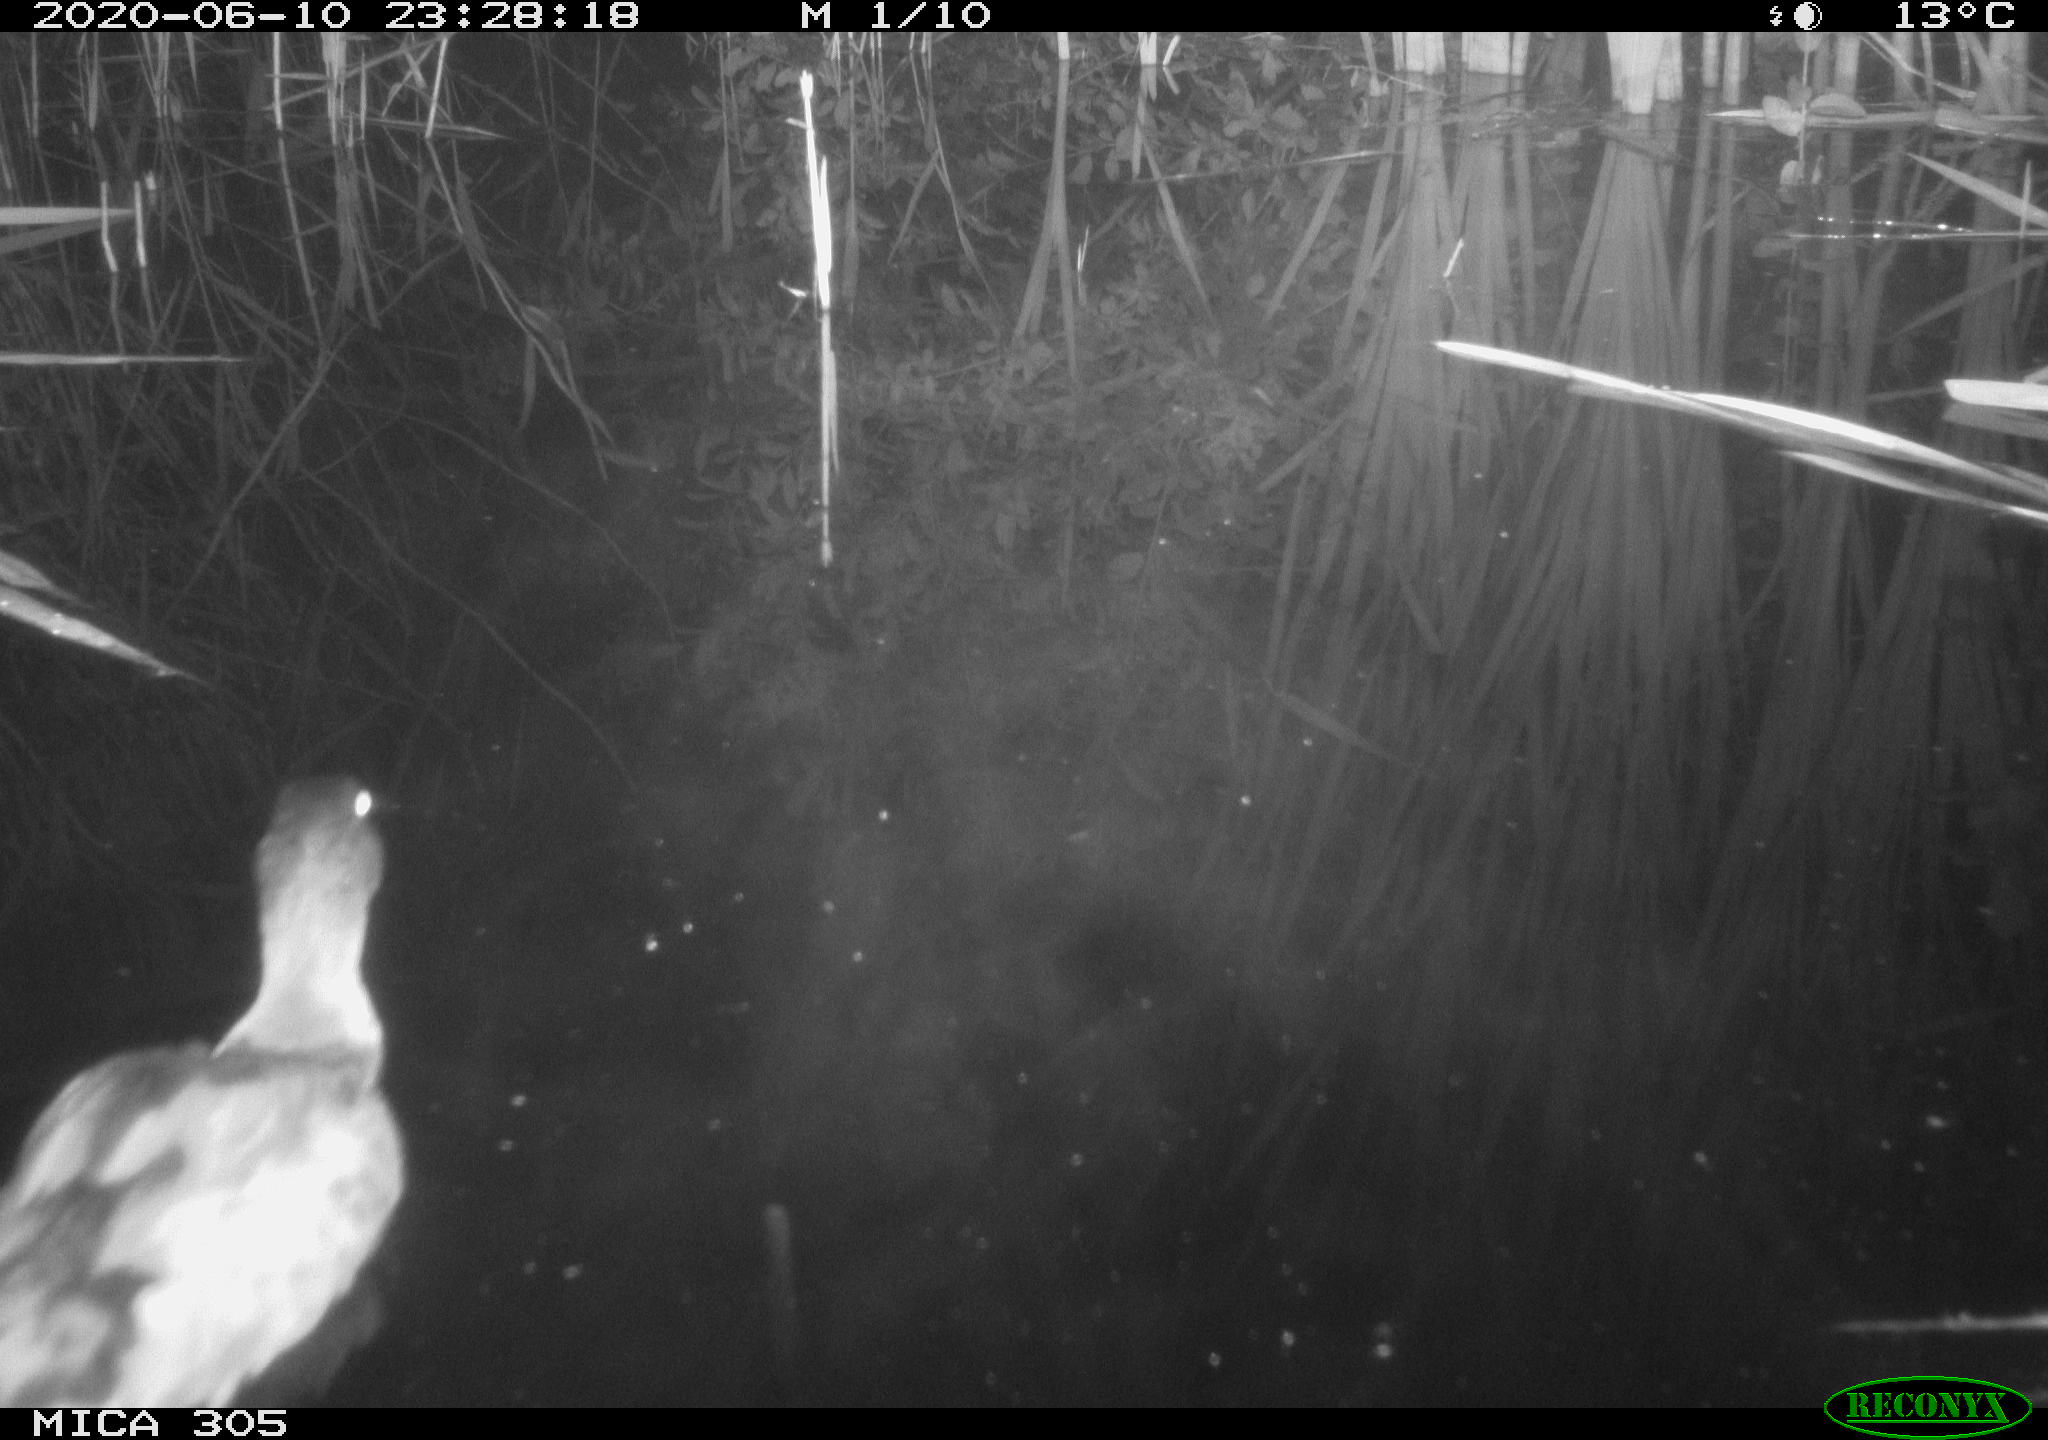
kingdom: Animalia
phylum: Chordata
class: Aves
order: Anseriformes
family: Anatidae
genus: Anas
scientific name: Anas platyrhynchos
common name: Mallard
